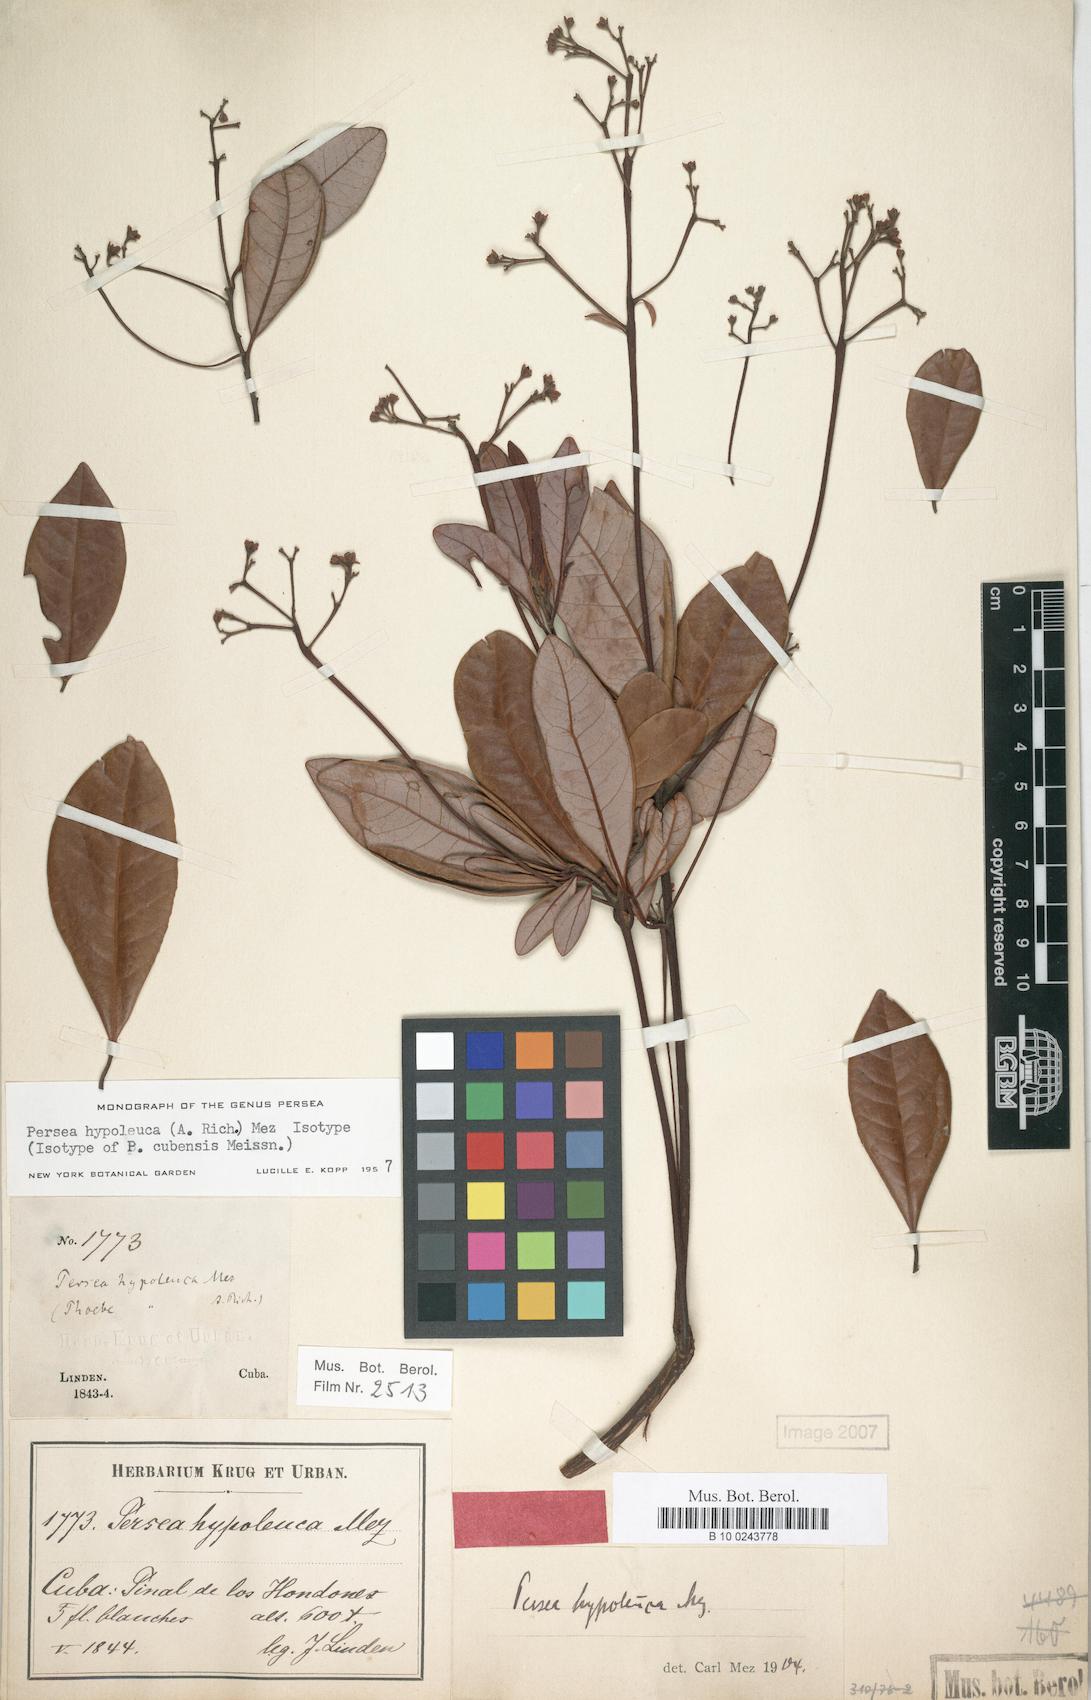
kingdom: Plantae
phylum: Tracheophyta
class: Magnoliopsida
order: Laurales
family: Lauraceae
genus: Persea
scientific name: Persea hypoleuca
